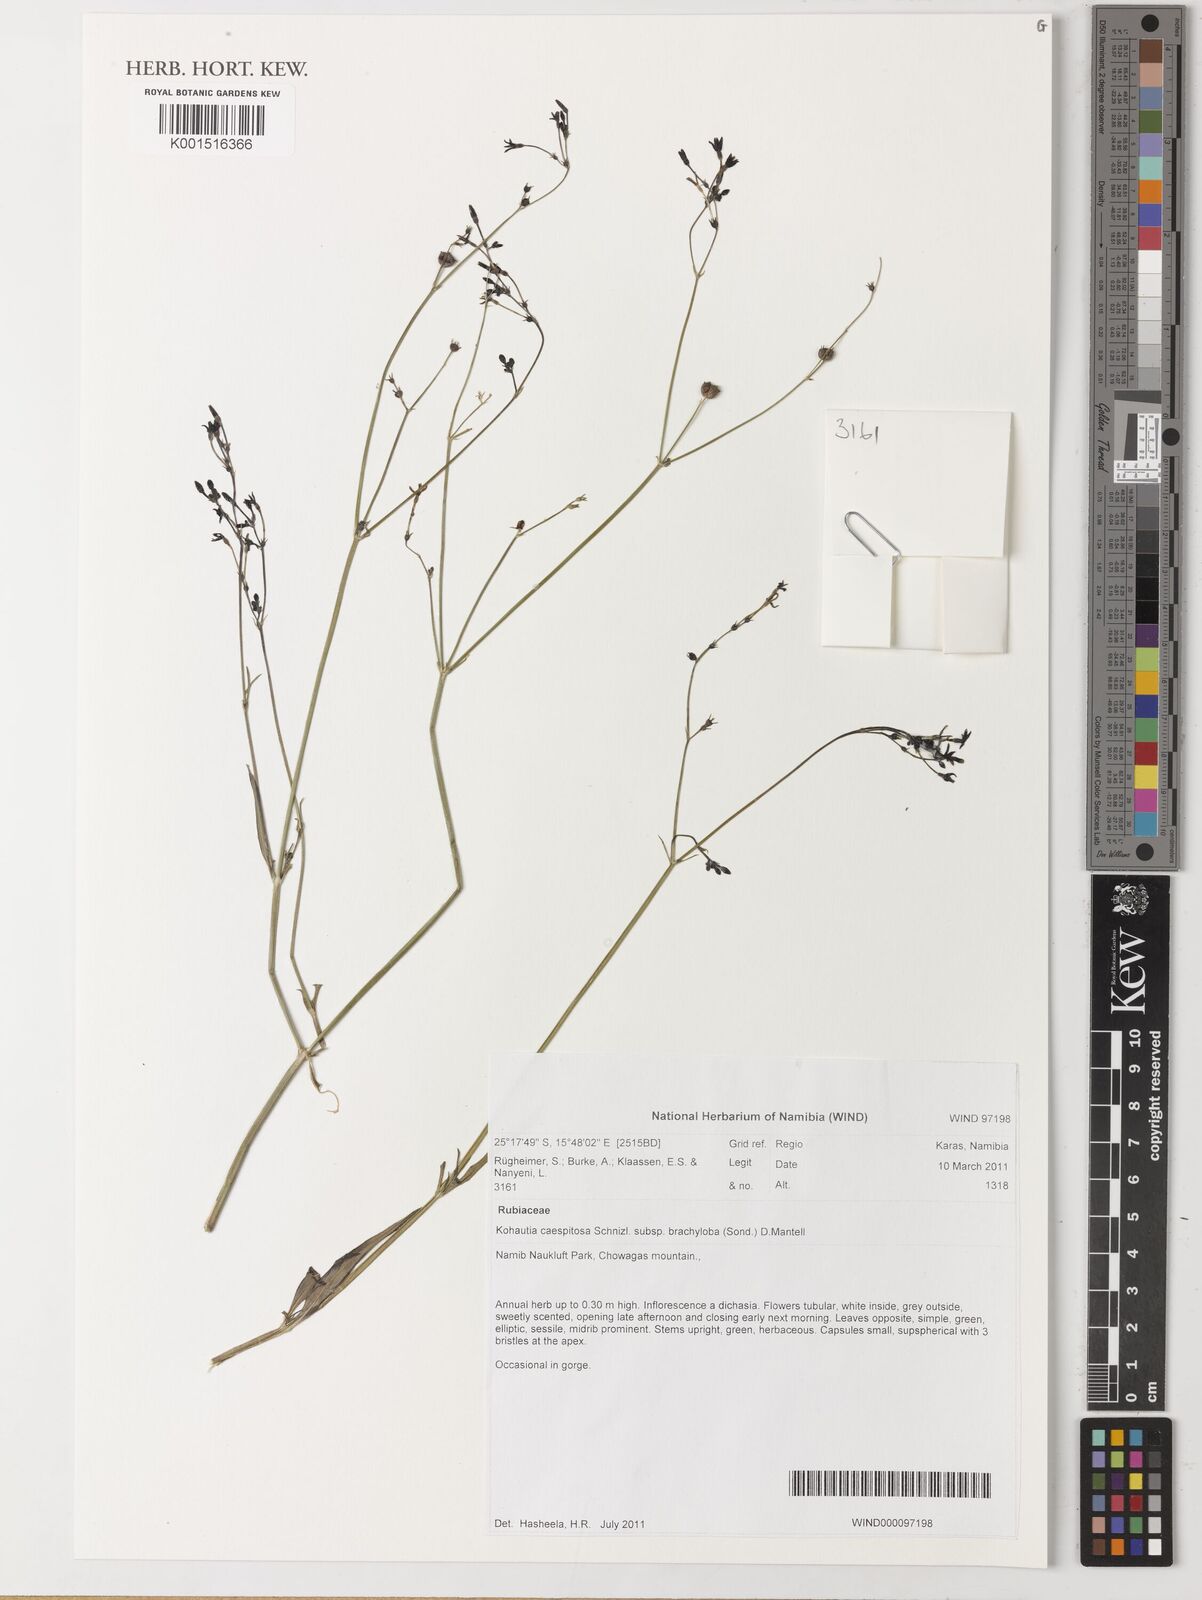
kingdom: Plantae
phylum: Tracheophyta
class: Magnoliopsida
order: Gentianales
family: Rubiaceae
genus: Kohautia
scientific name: Kohautia caespitosa
